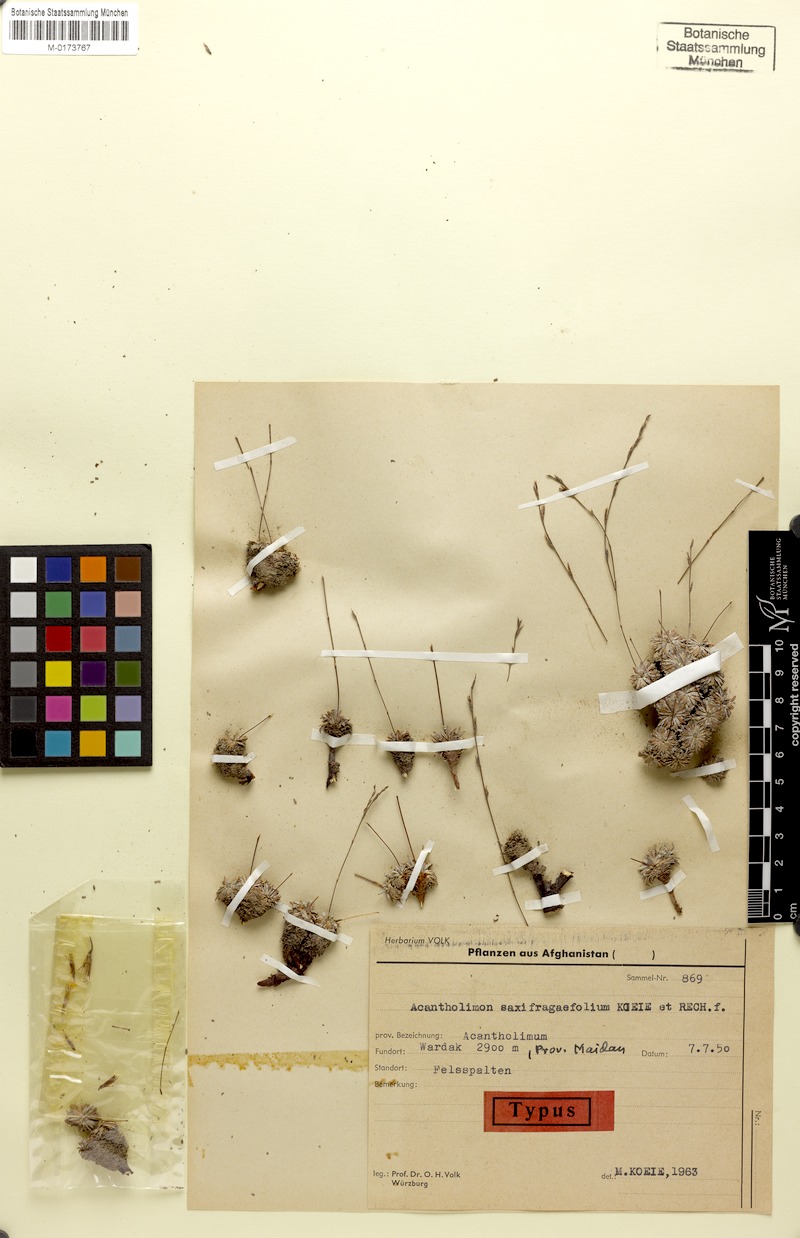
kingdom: Plantae
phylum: Tracheophyta
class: Magnoliopsida
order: Caryophyllales
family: Plumbaginaceae
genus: Neogontscharovia
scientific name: Neogontscharovia saxifragifolia
